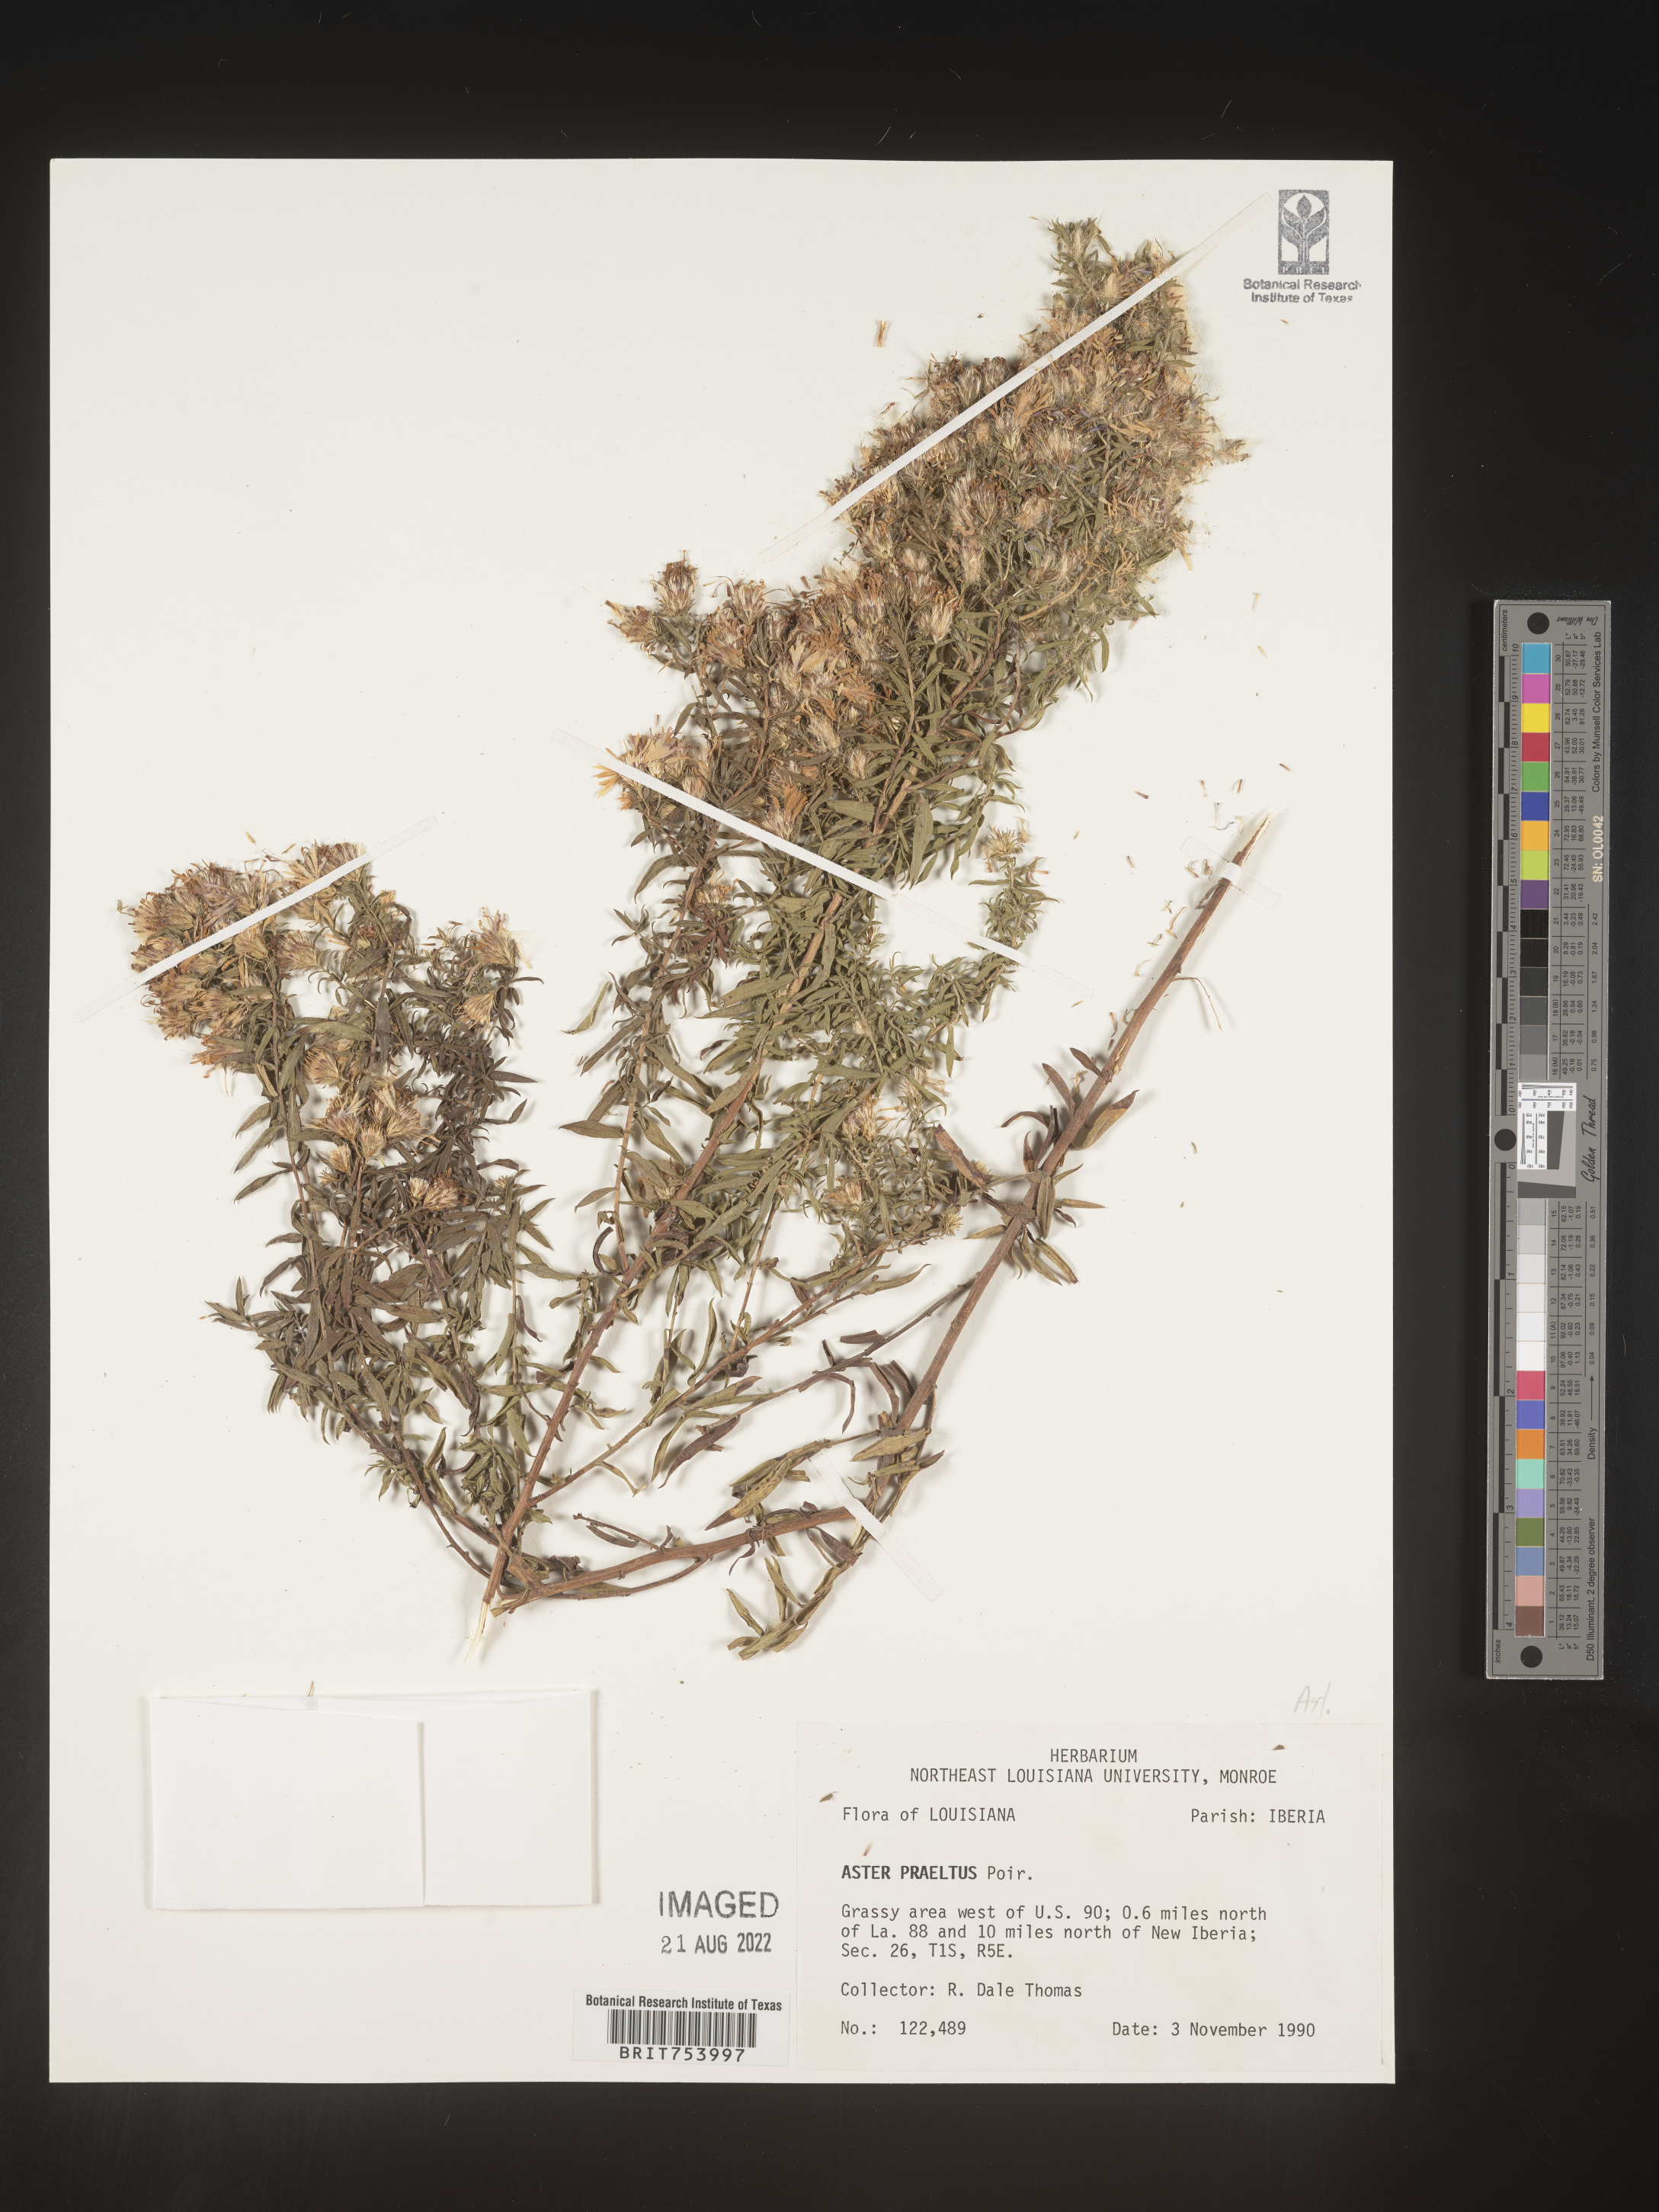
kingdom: Plantae
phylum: Tracheophyta
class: Magnoliopsida
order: Asterales
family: Asteraceae
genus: Symphyotrichum
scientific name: Symphyotrichum praealtum
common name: Willow aster
